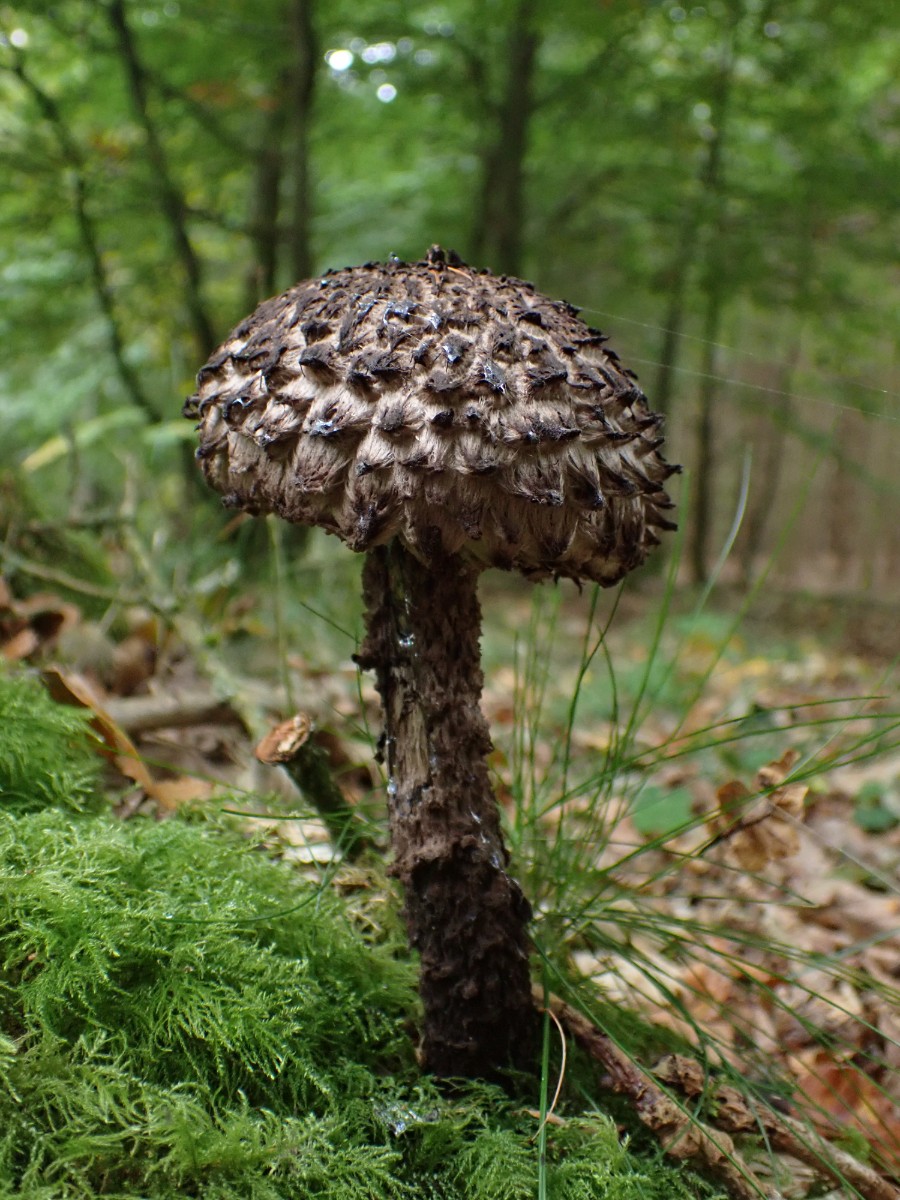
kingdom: Fungi
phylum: Basidiomycota
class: Agaricomycetes
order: Boletales
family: Boletaceae
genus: Strobilomyces
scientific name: Strobilomyces strobilaceus
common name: koglerørhat
